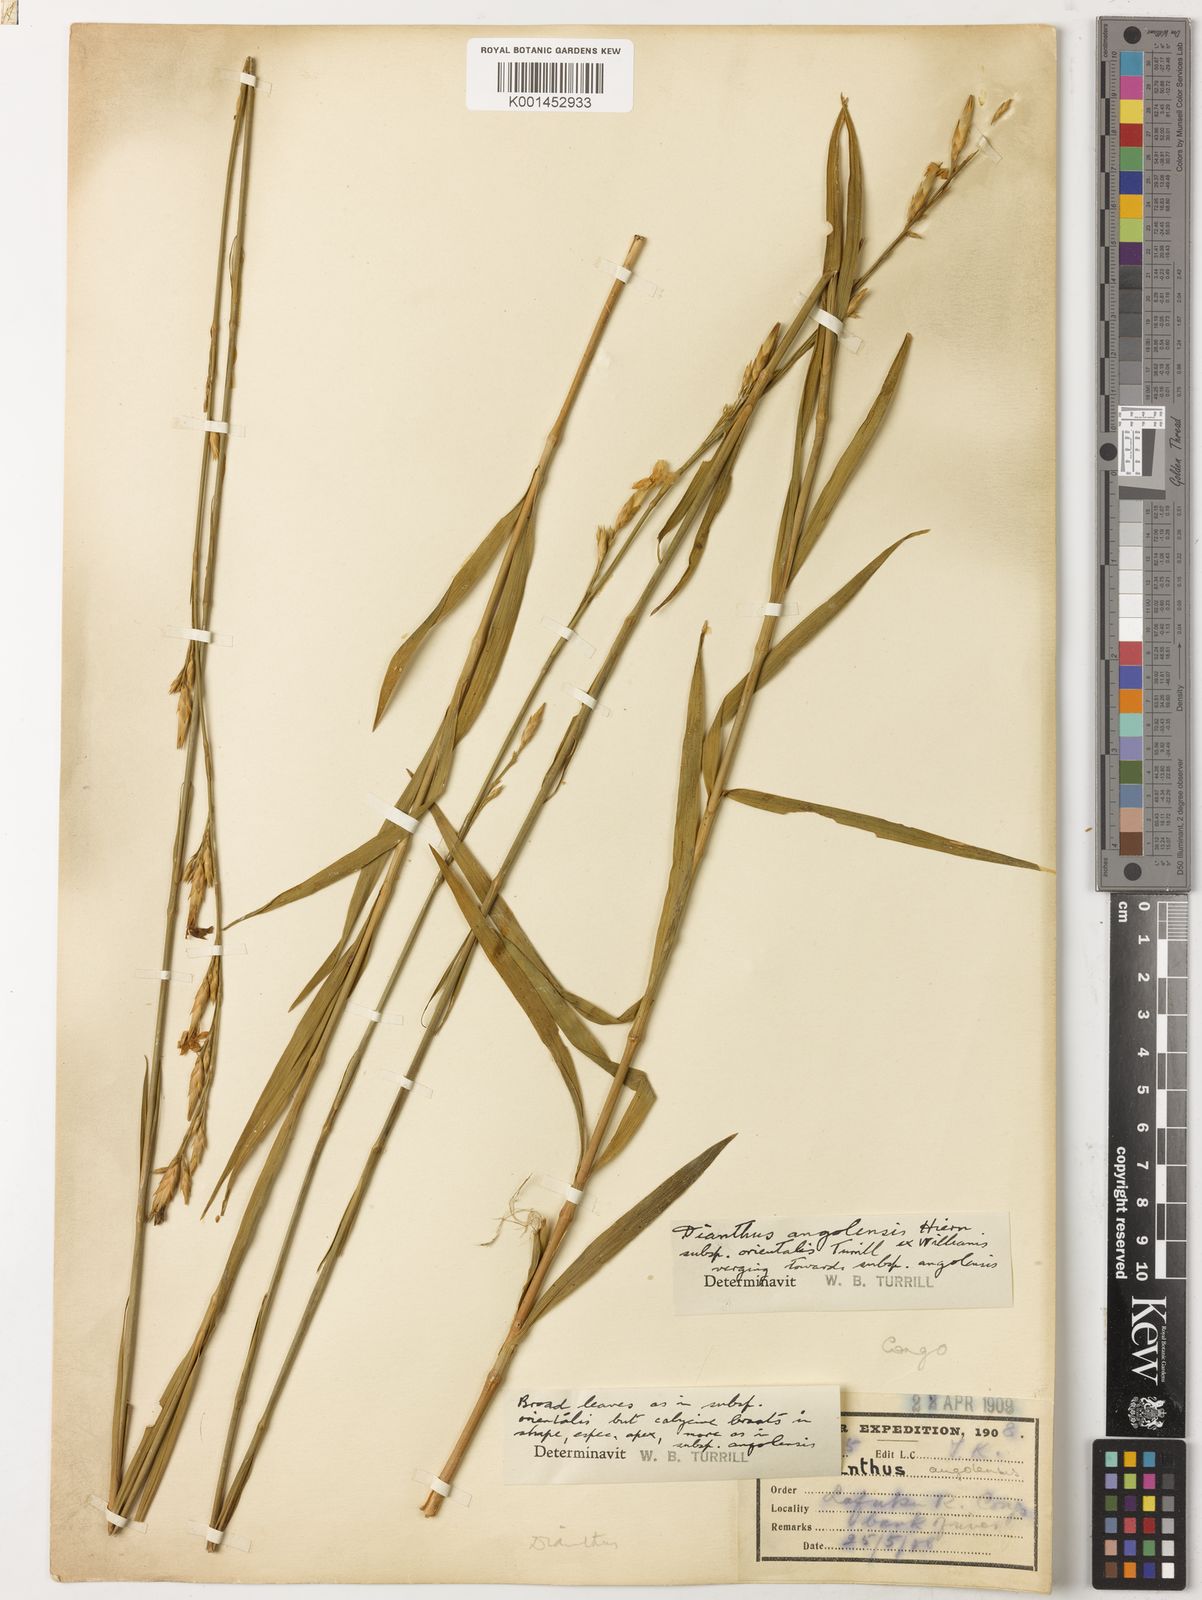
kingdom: Plantae
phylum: Tracheophyta
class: Magnoliopsida
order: Caryophyllales
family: Caryophyllaceae
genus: Dianthus
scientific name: Dianthus excelsus
